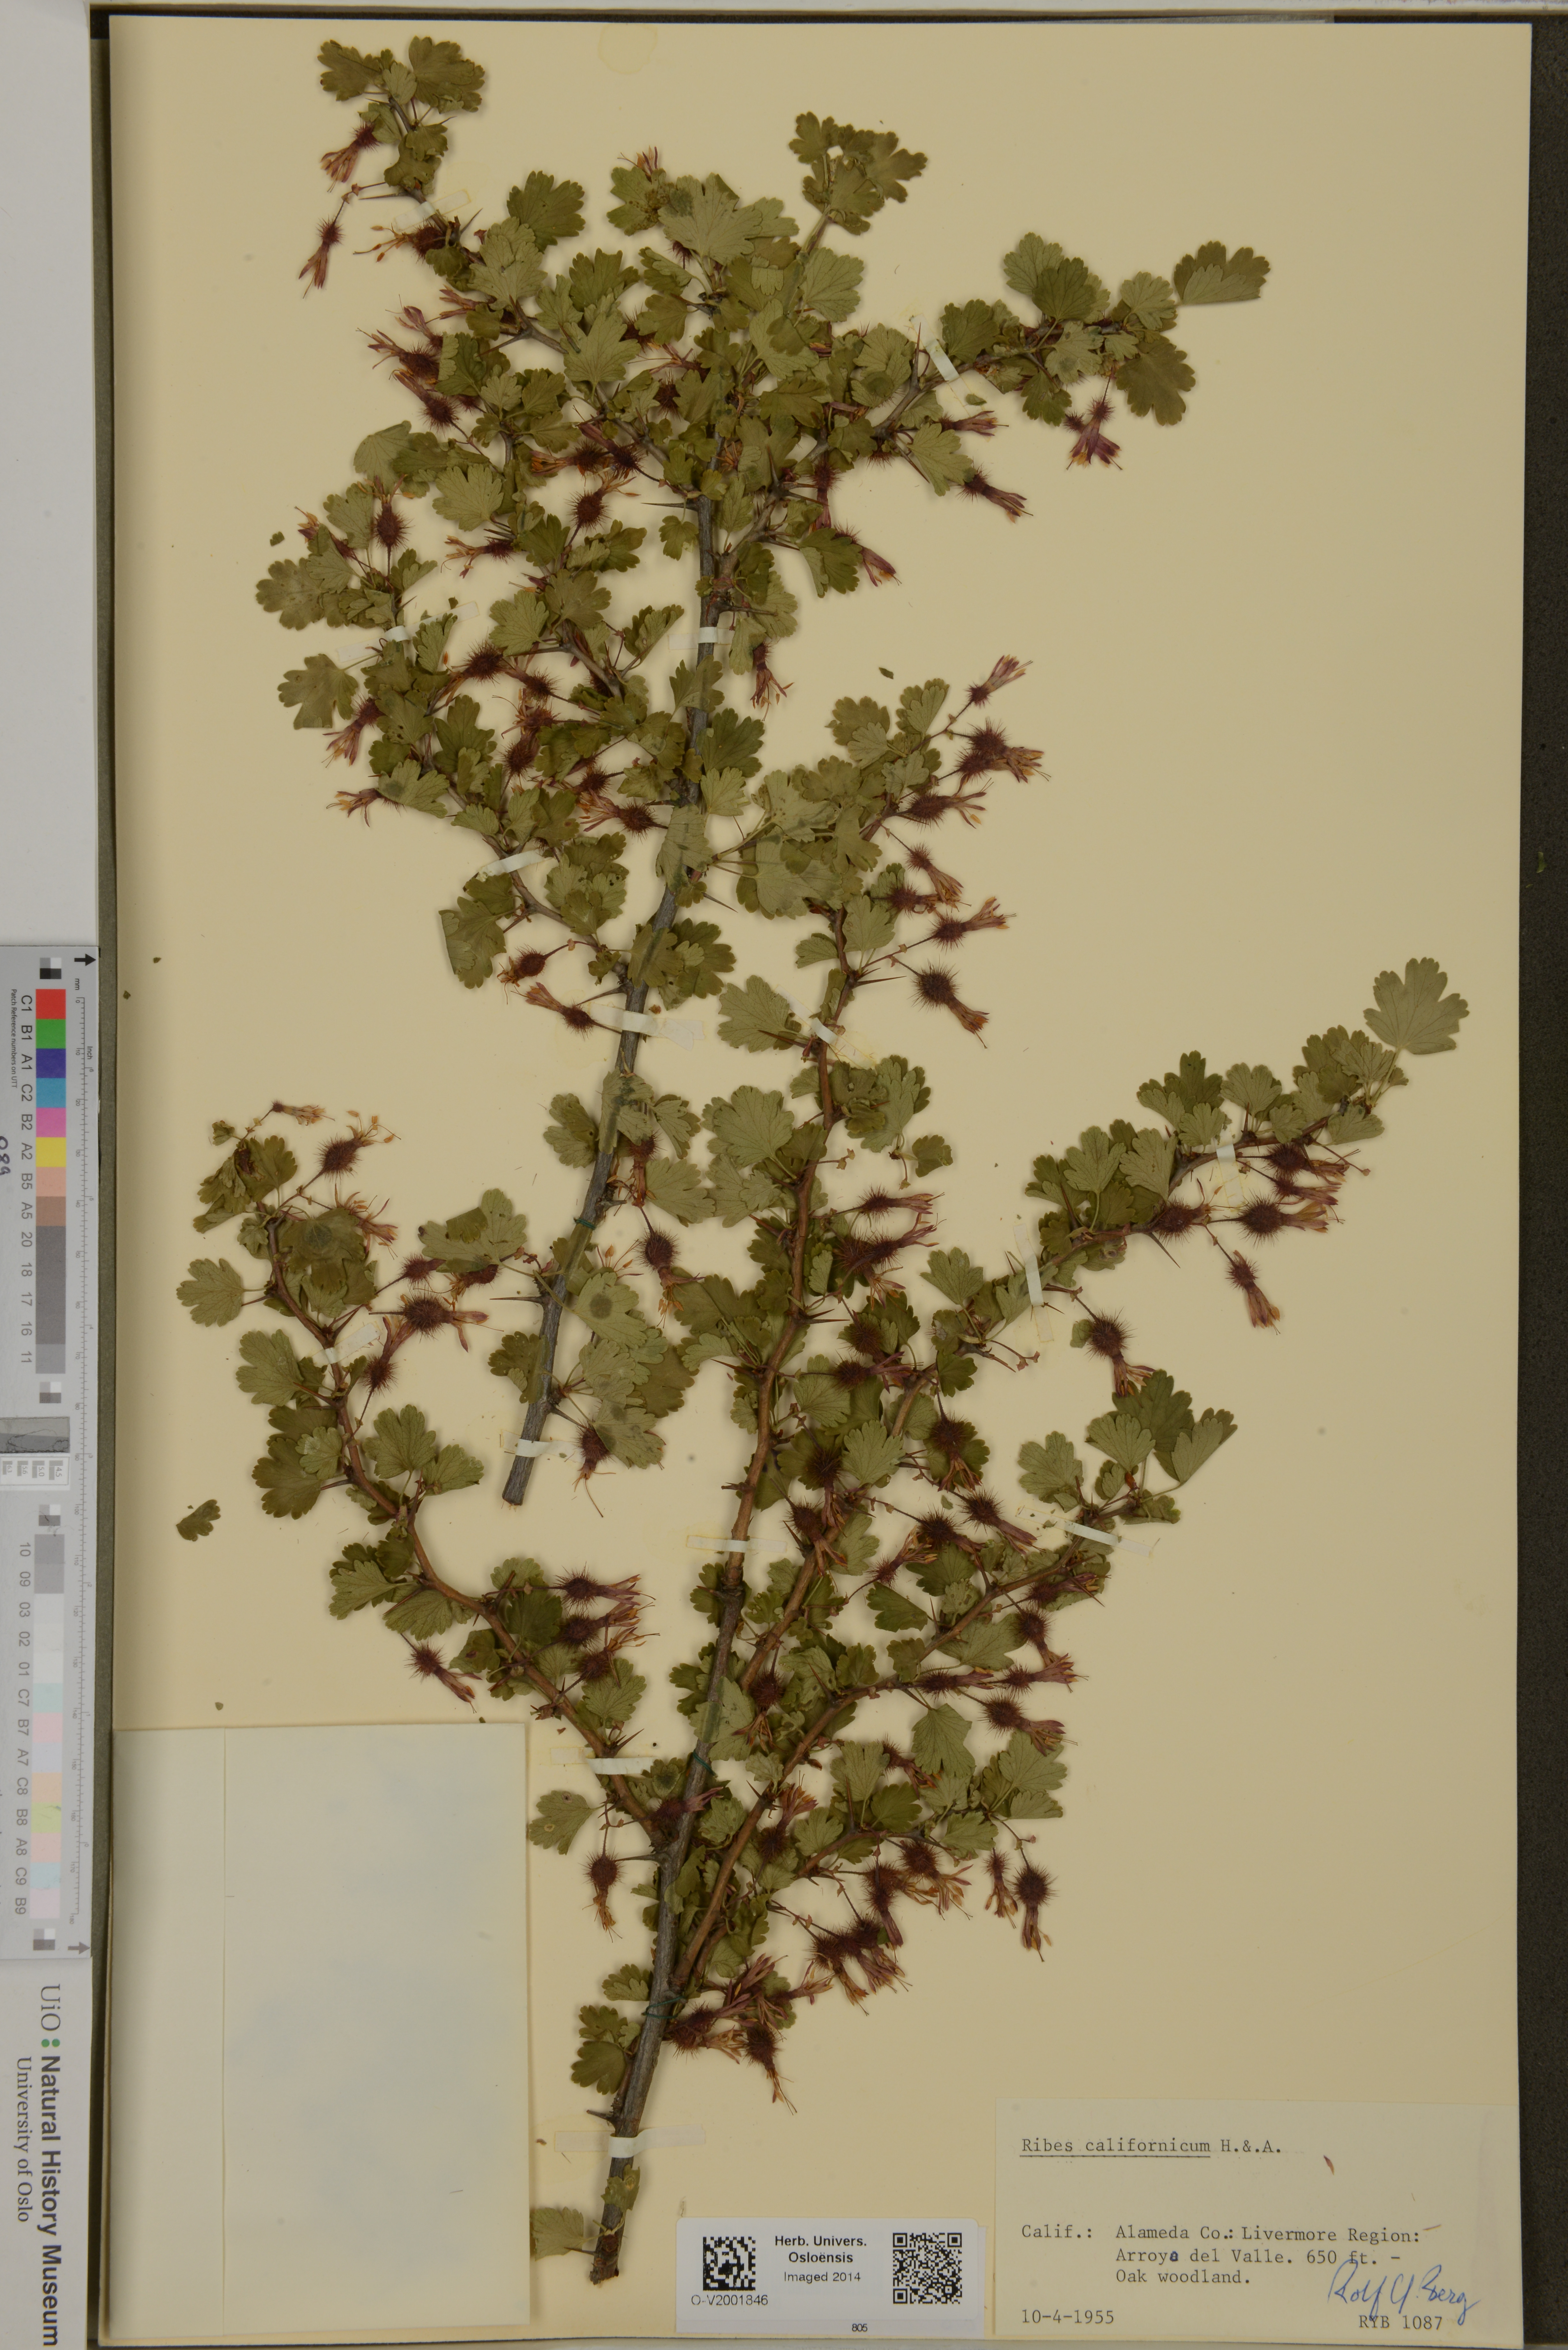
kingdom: Plantae
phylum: Tracheophyta
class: Magnoliopsida
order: Saxifragales
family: Grossulariaceae
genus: Ribes
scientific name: Ribes californicum
